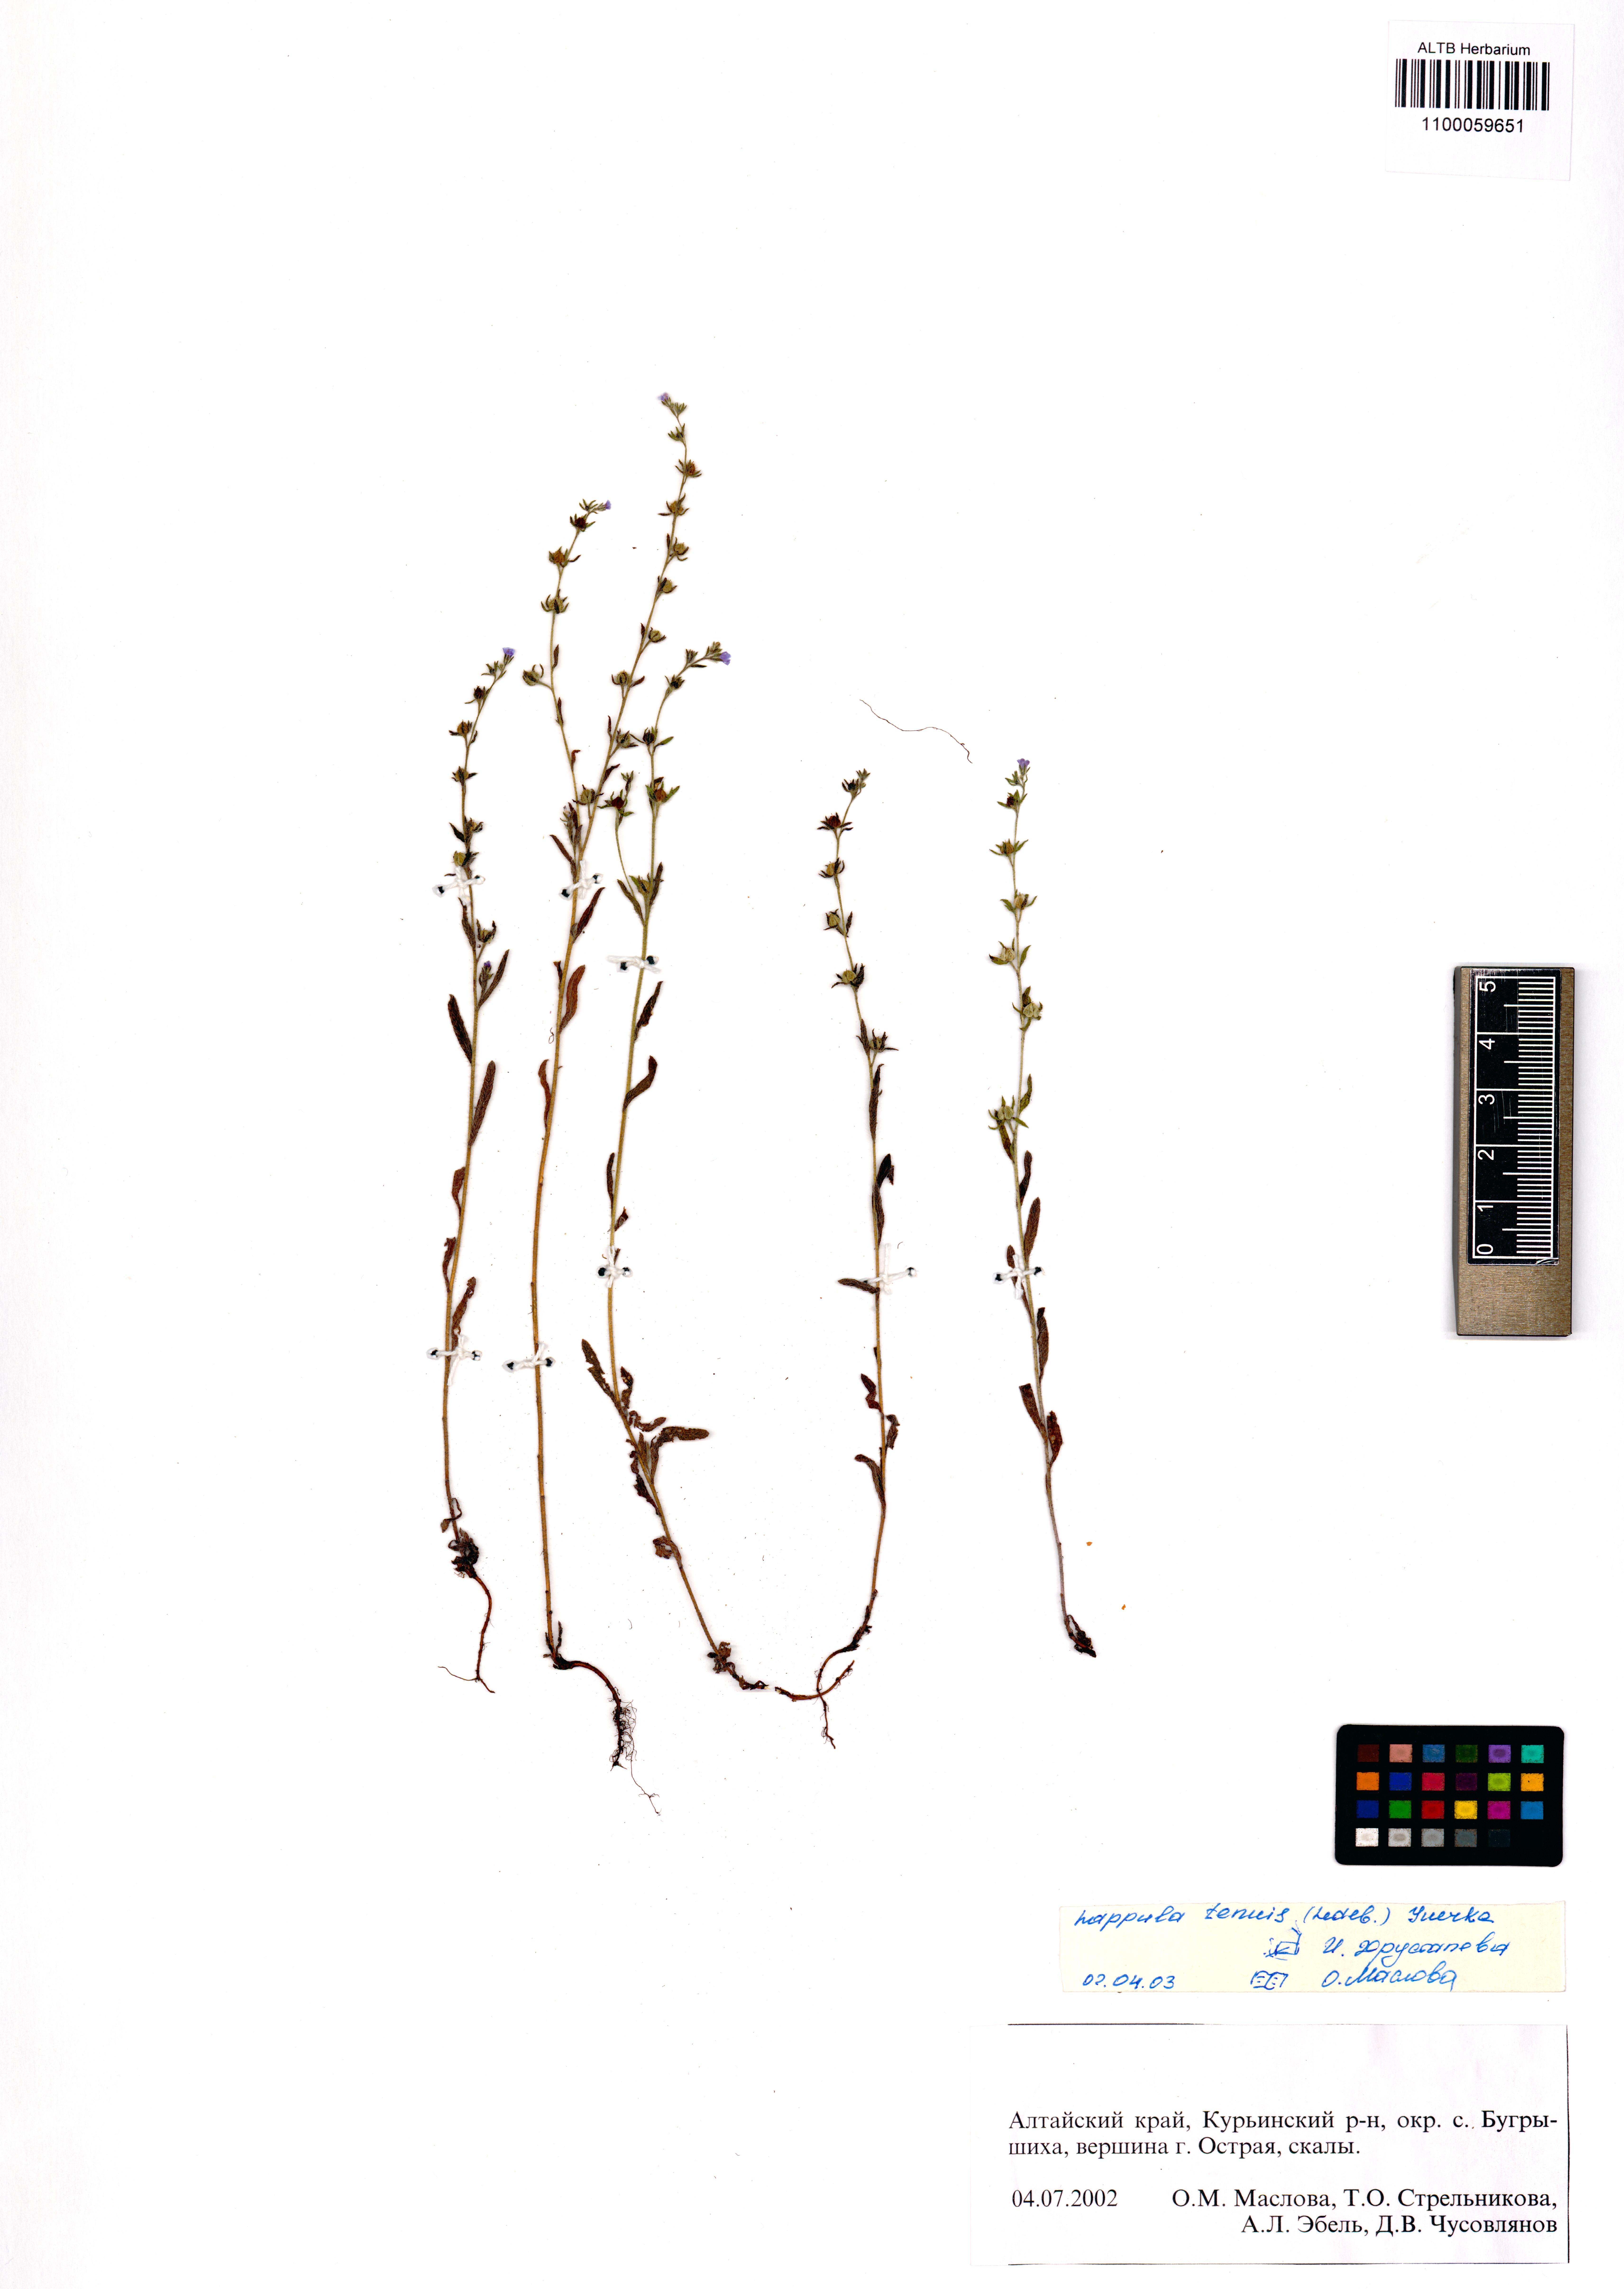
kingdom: Plantae
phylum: Tracheophyta
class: Magnoliopsida
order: Boraginales
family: Boraginaceae
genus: Lappula
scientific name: Lappula tenuis
